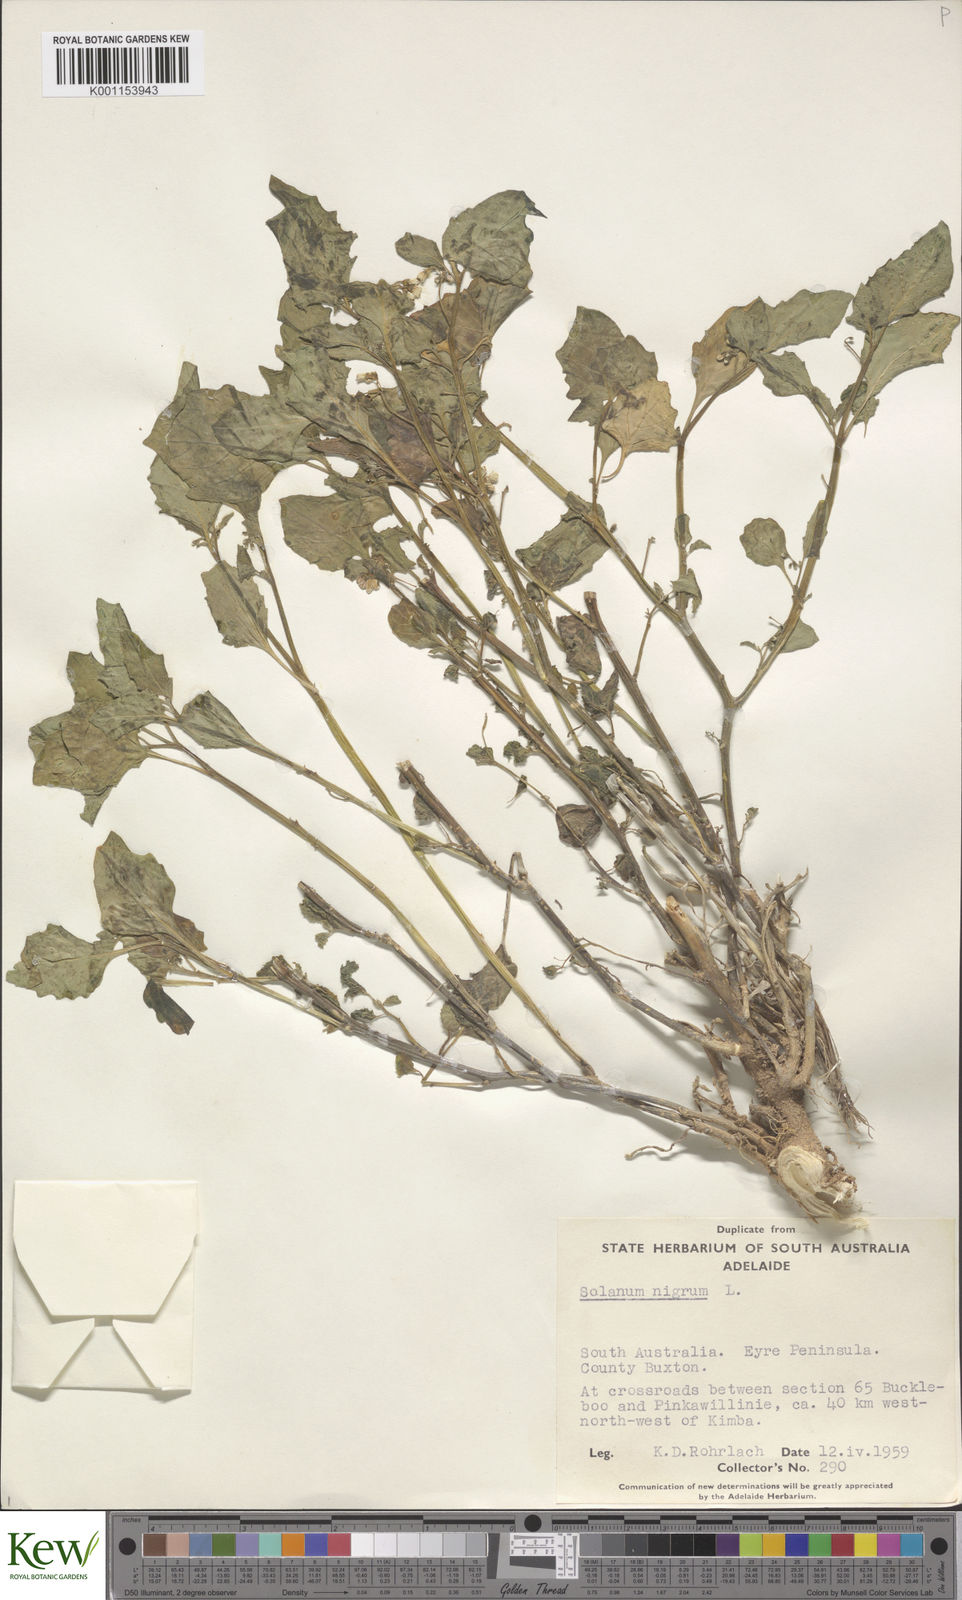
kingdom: Plantae
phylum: Tracheophyta
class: Magnoliopsida
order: Solanales
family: Solanaceae
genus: Solanum
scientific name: Solanum nigrum
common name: Black nightshade
